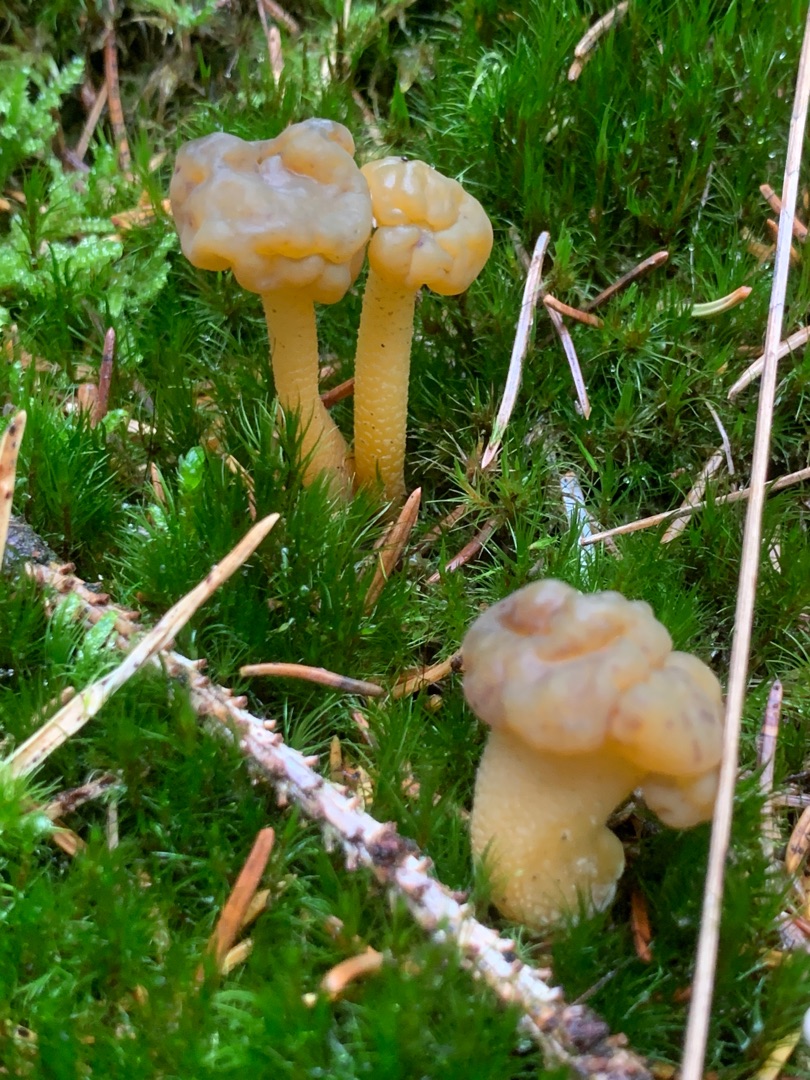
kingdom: Fungi
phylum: Ascomycota
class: Leotiomycetes
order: Leotiales
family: Leotiaceae
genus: Leotia
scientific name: Leotia lubrica
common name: Ravsvamp
